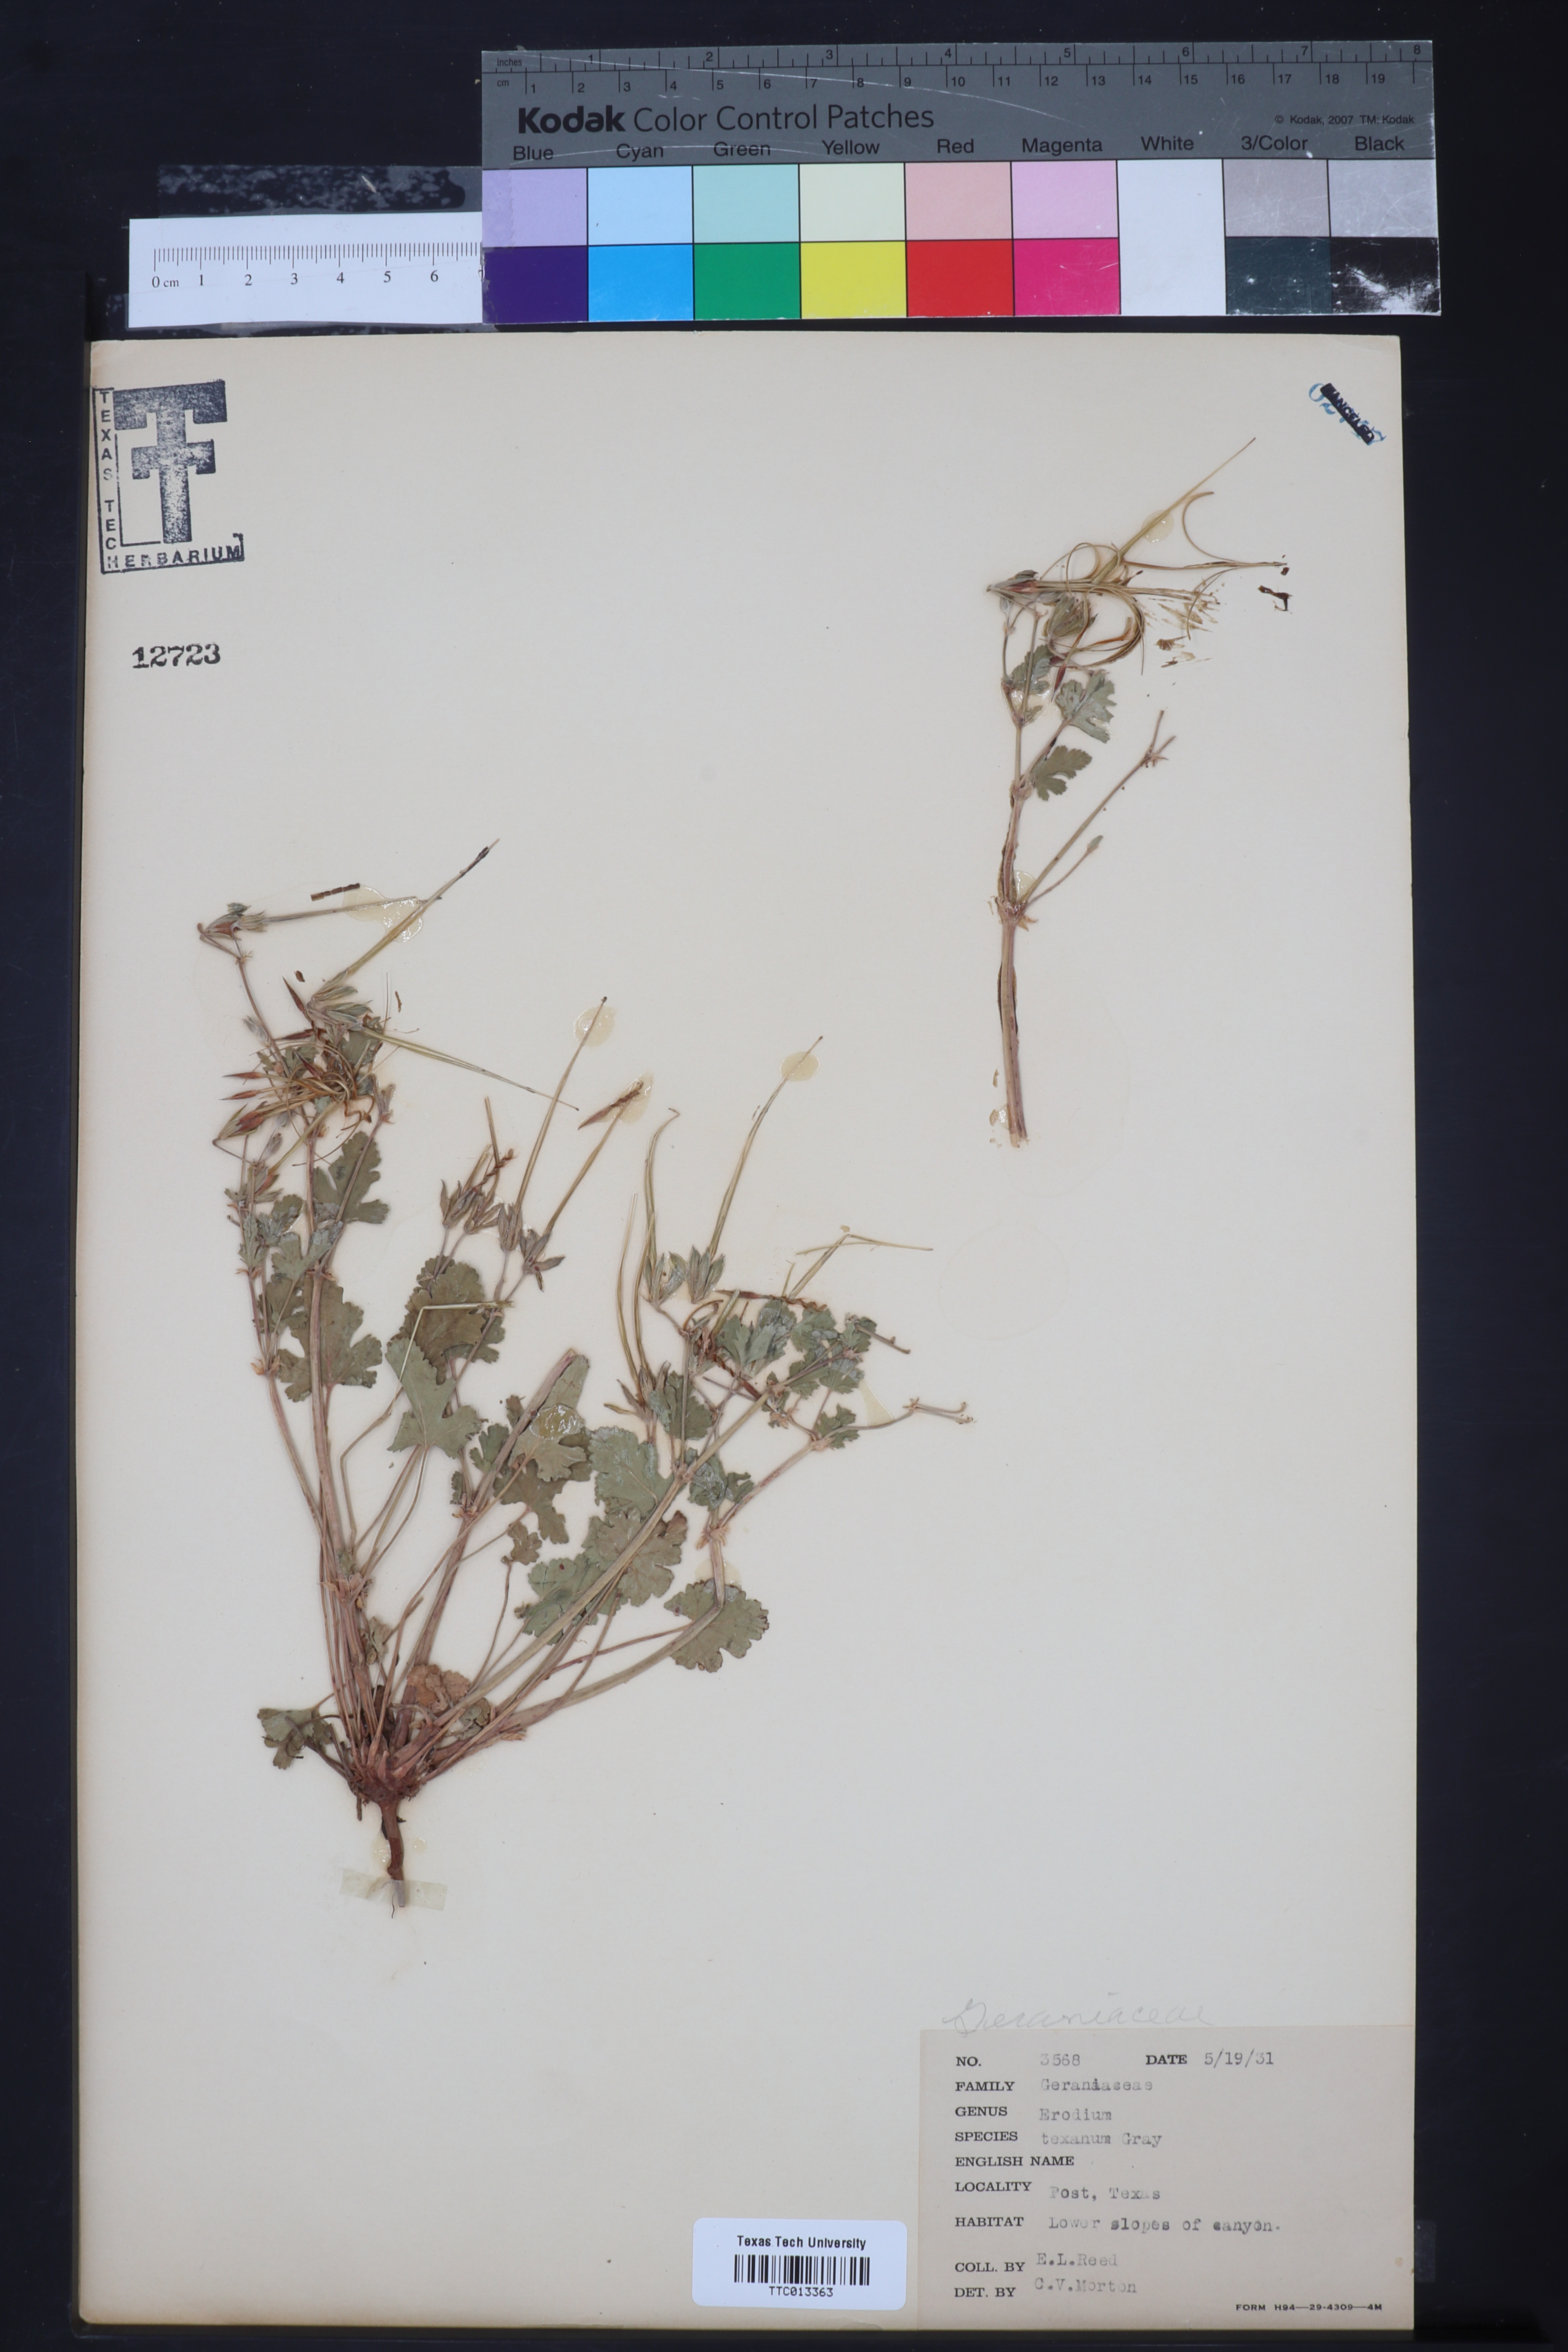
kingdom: Plantae
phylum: Tracheophyta
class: Magnoliopsida
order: Geraniales
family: Geraniaceae
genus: Erodium
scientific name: Erodium texanum
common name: Texas stork's-bill
